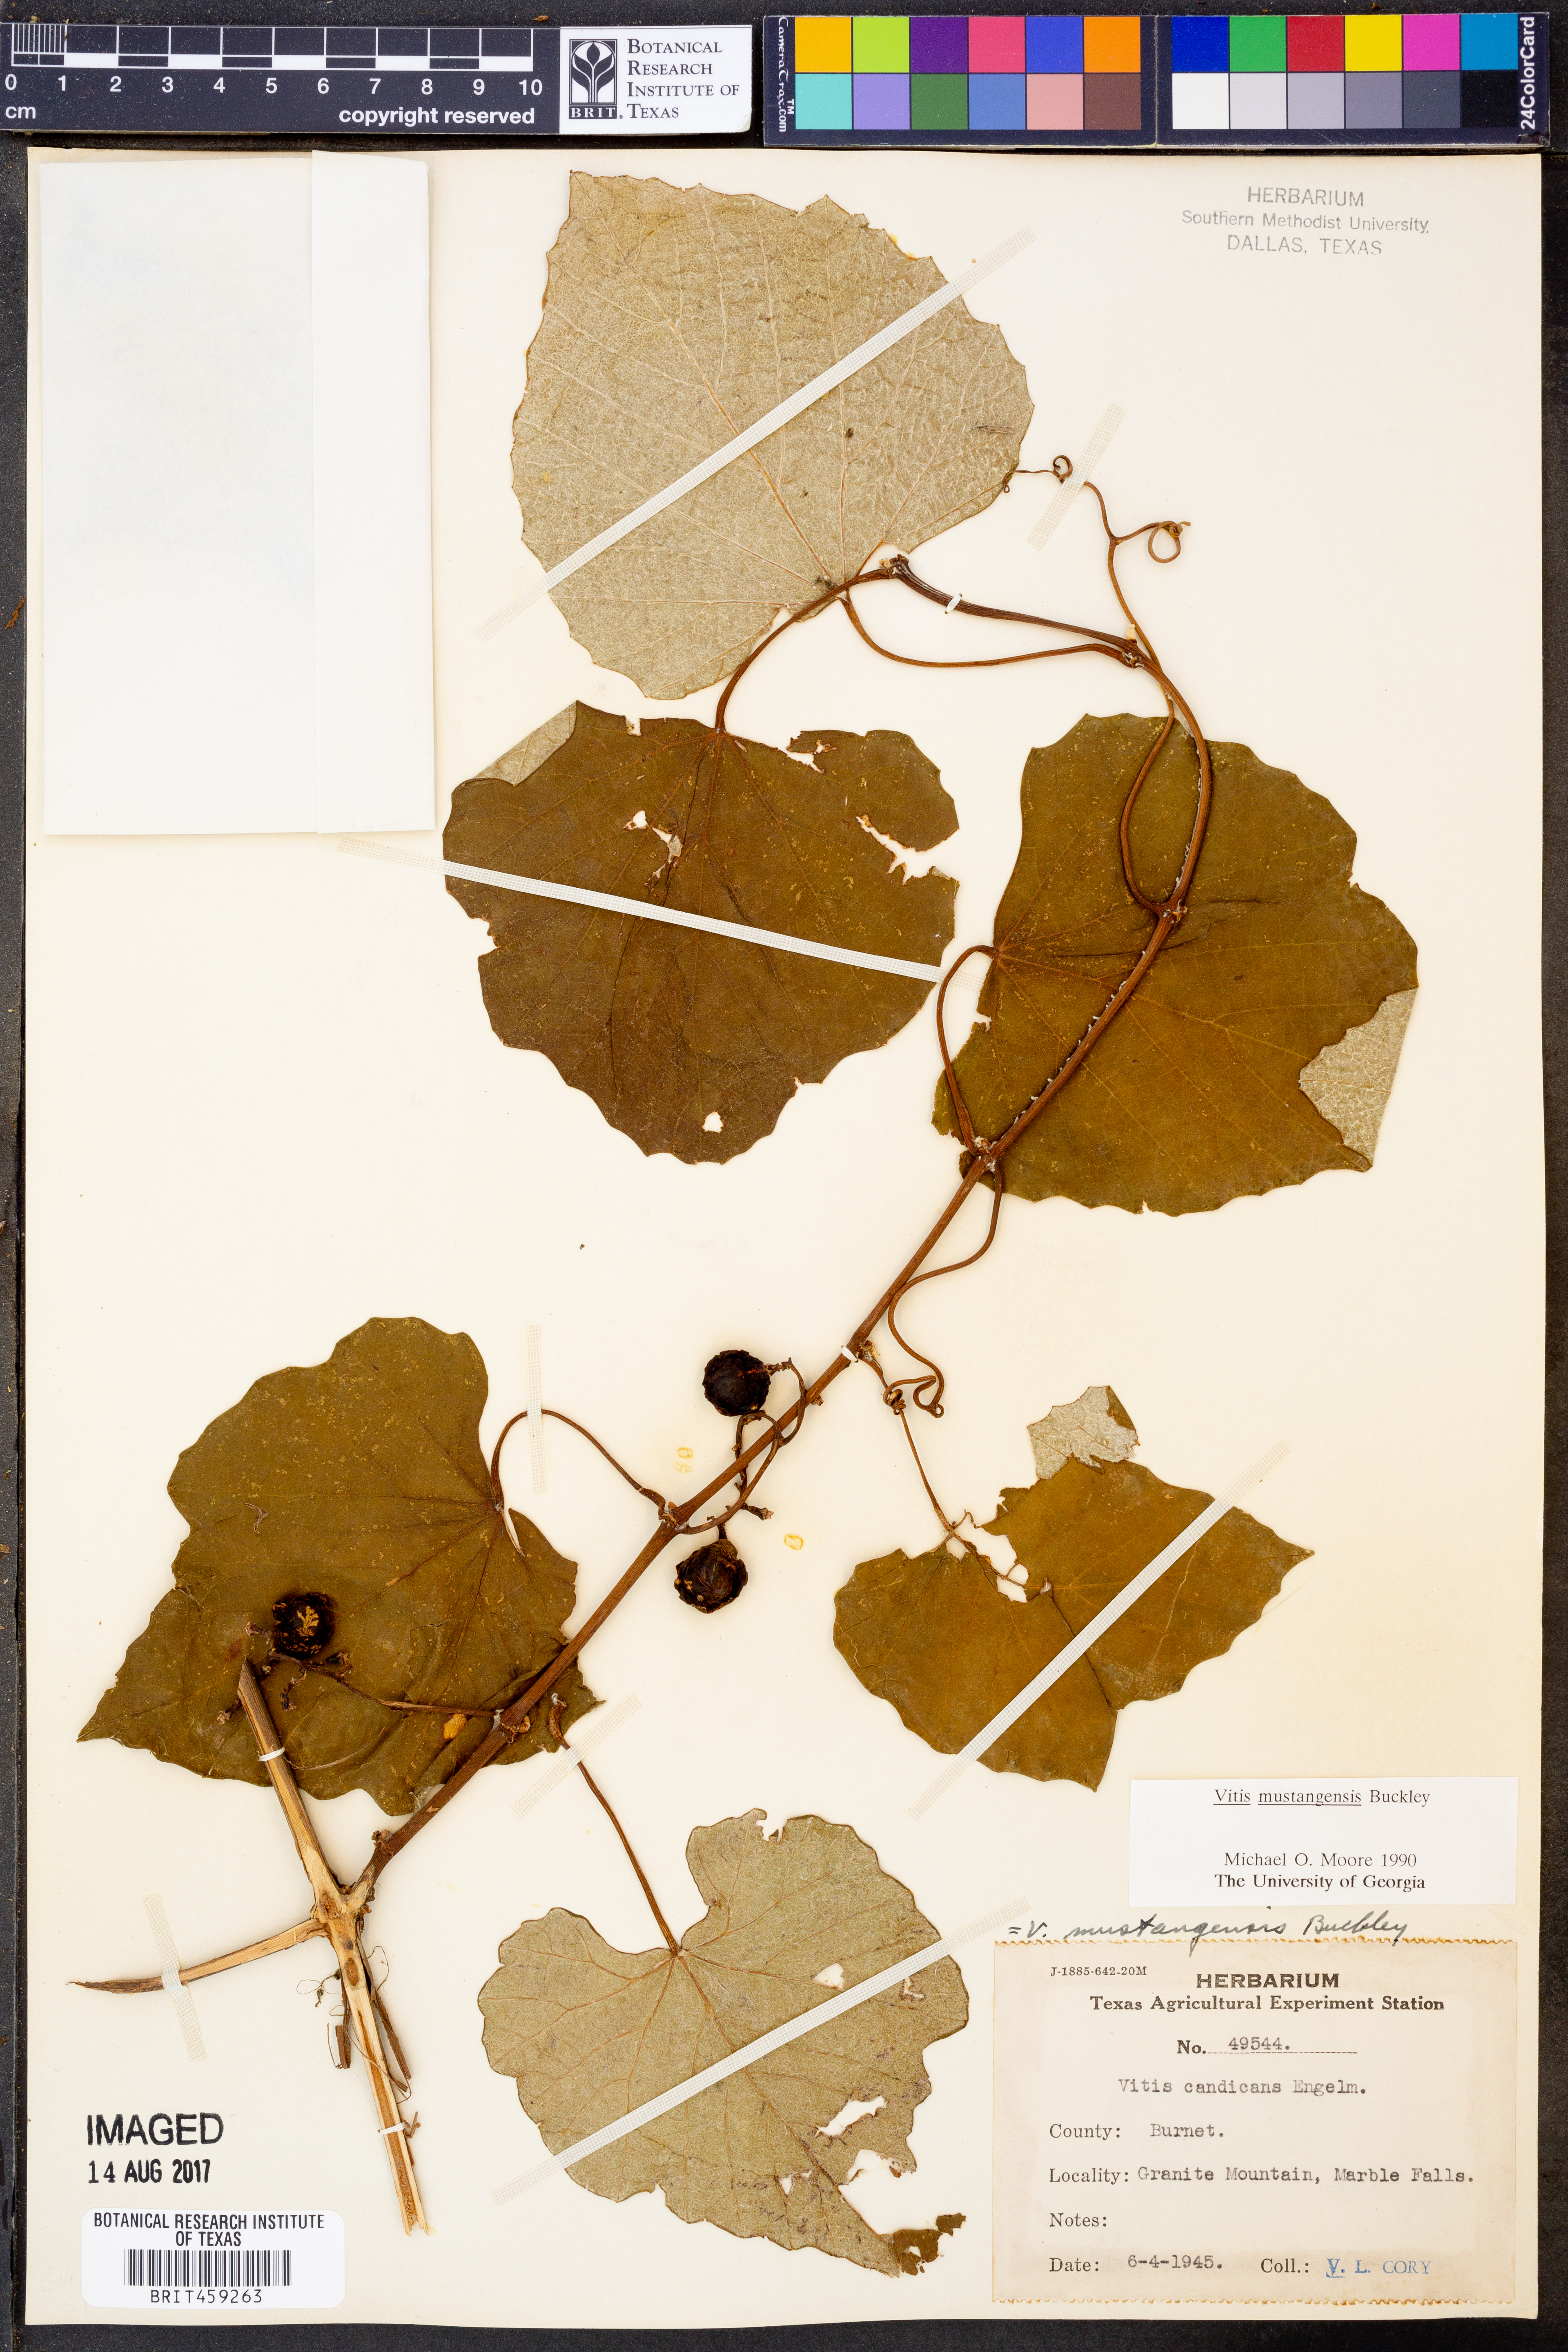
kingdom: Plantae
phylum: Tracheophyta
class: Magnoliopsida
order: Vitales
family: Vitaceae
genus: Vitis
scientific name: Vitis mustangensis
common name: Mustang grape
